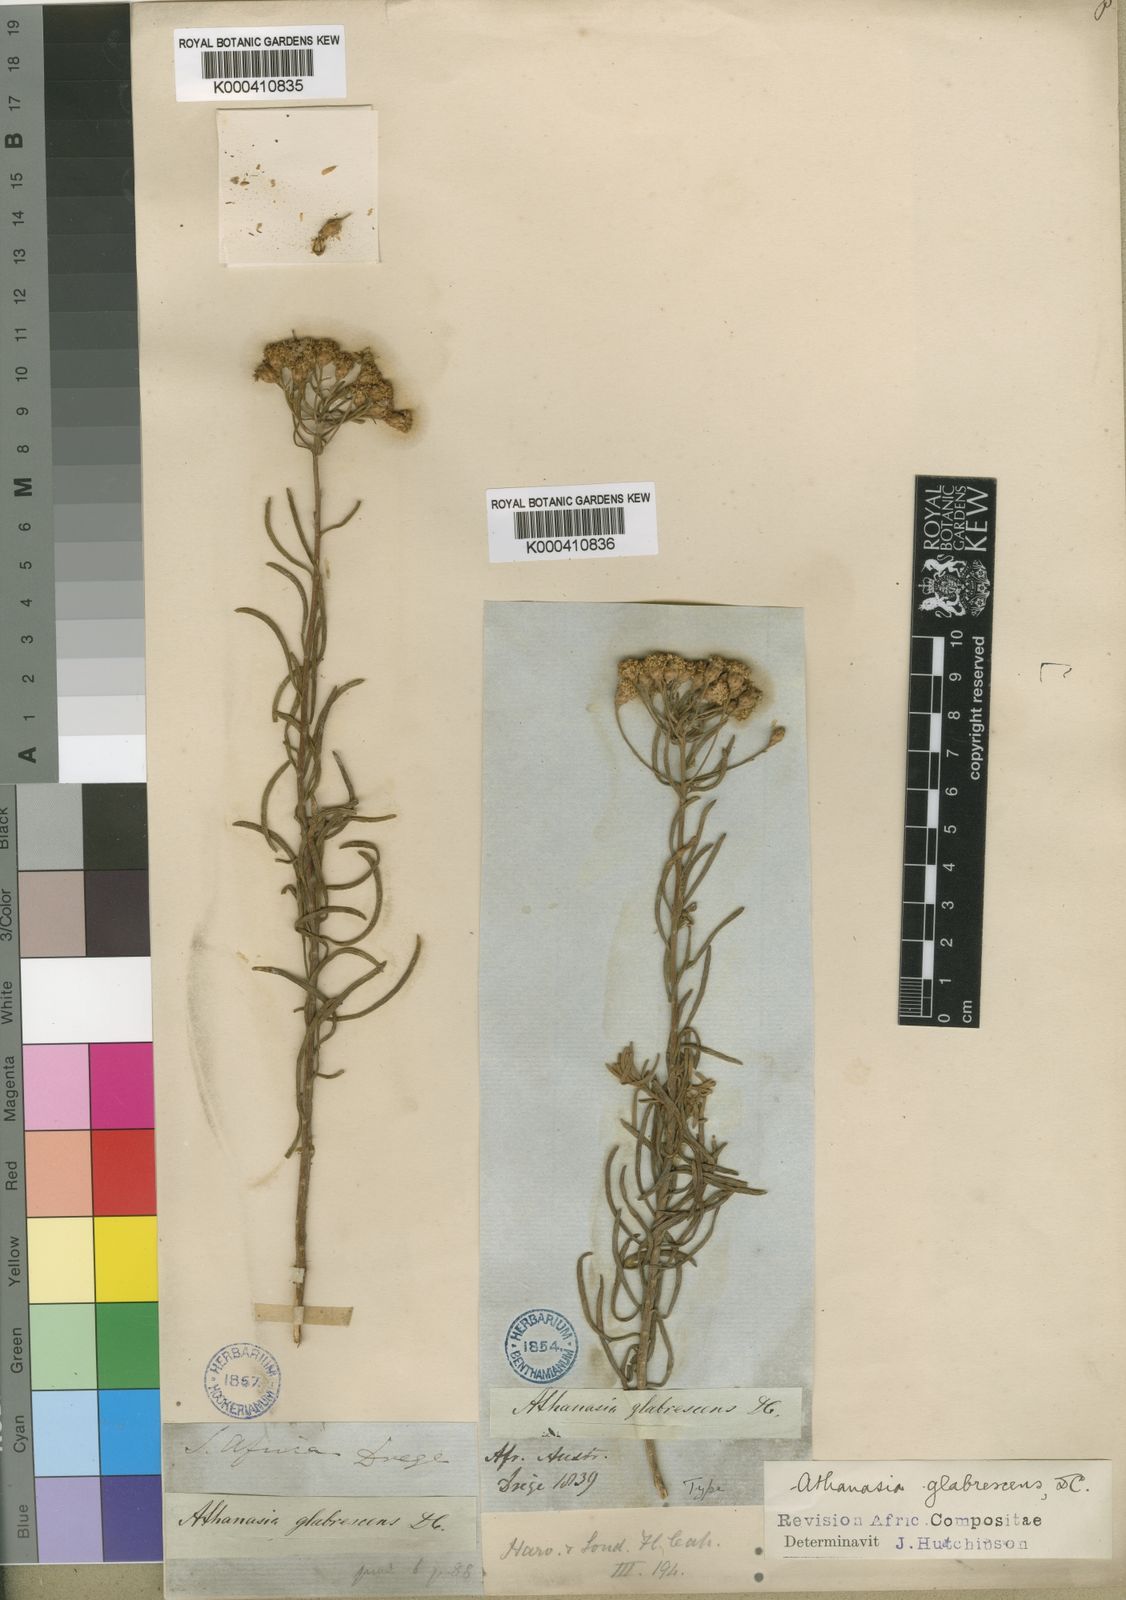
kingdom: Plantae
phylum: Tracheophyta
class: Magnoliopsida
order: Asterales
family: Asteraceae
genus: Athanasia
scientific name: Athanasia
